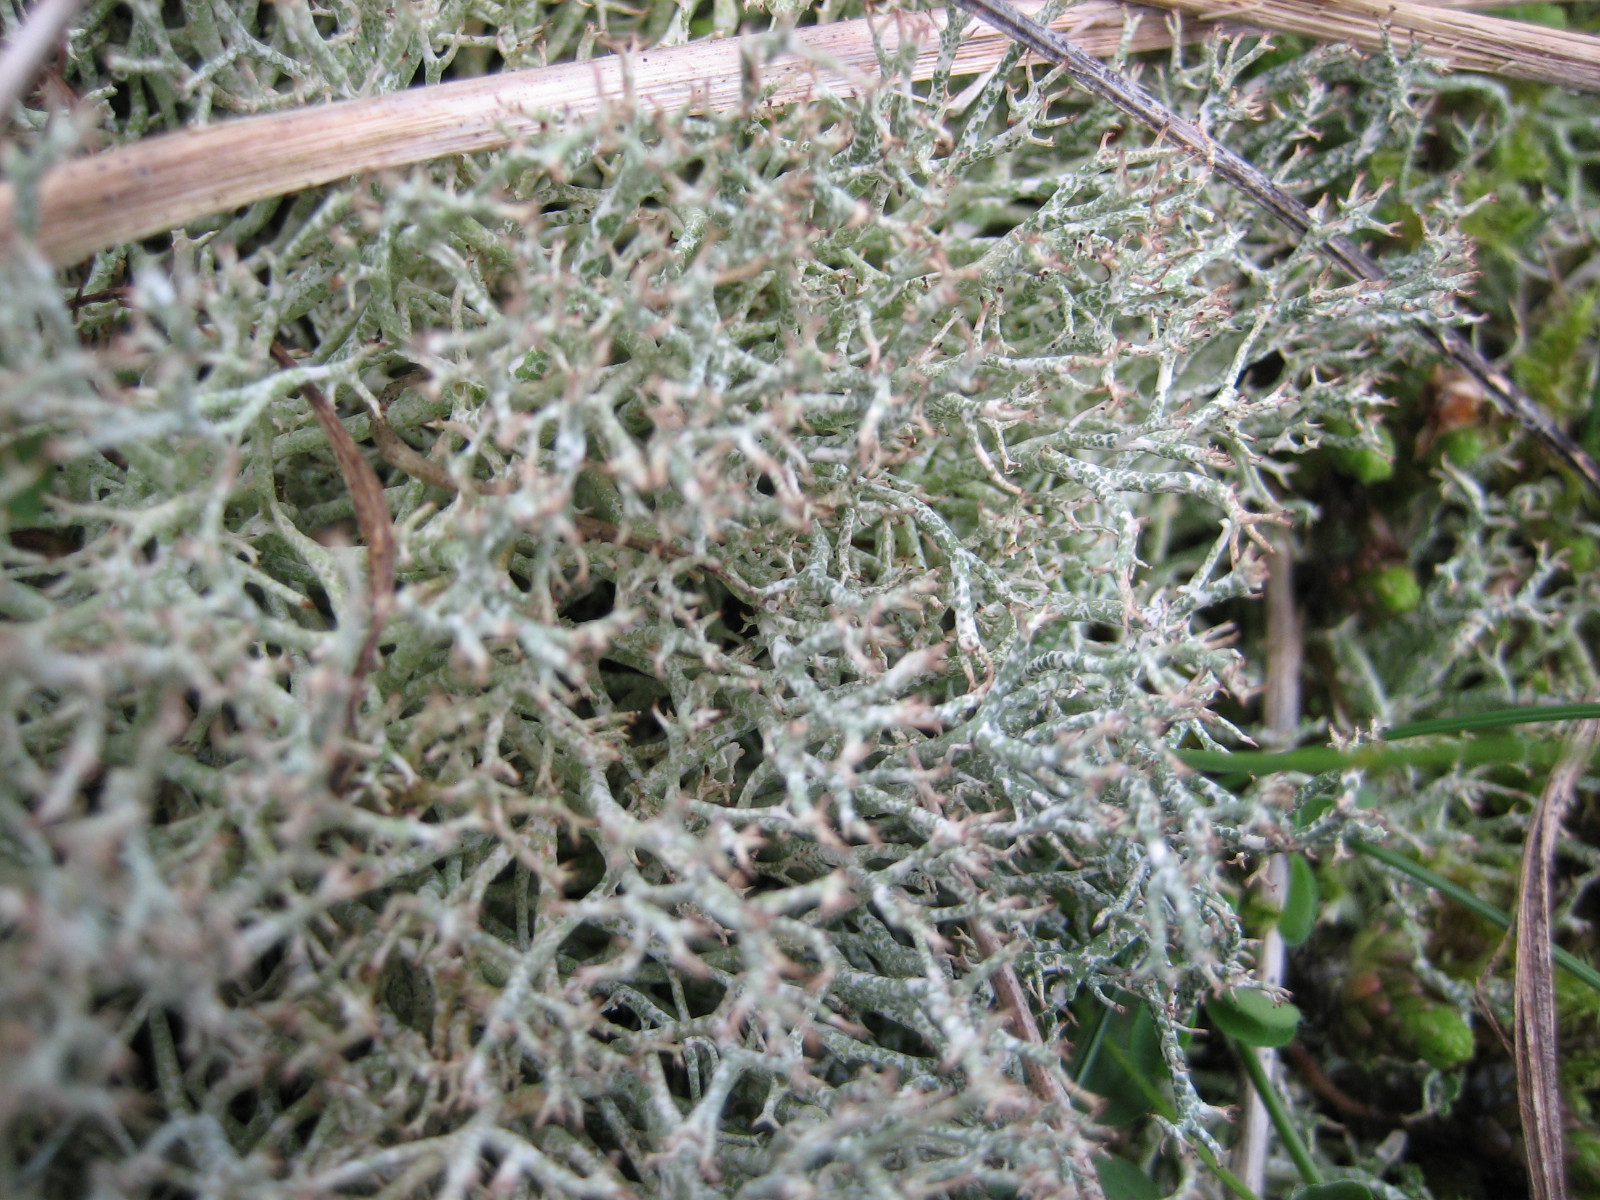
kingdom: Fungi
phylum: Ascomycota
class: Lecanoromycetes
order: Lecanorales
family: Cladoniaceae
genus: Cladonia
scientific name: Cladonia rangiformis
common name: spættet bægerlav
